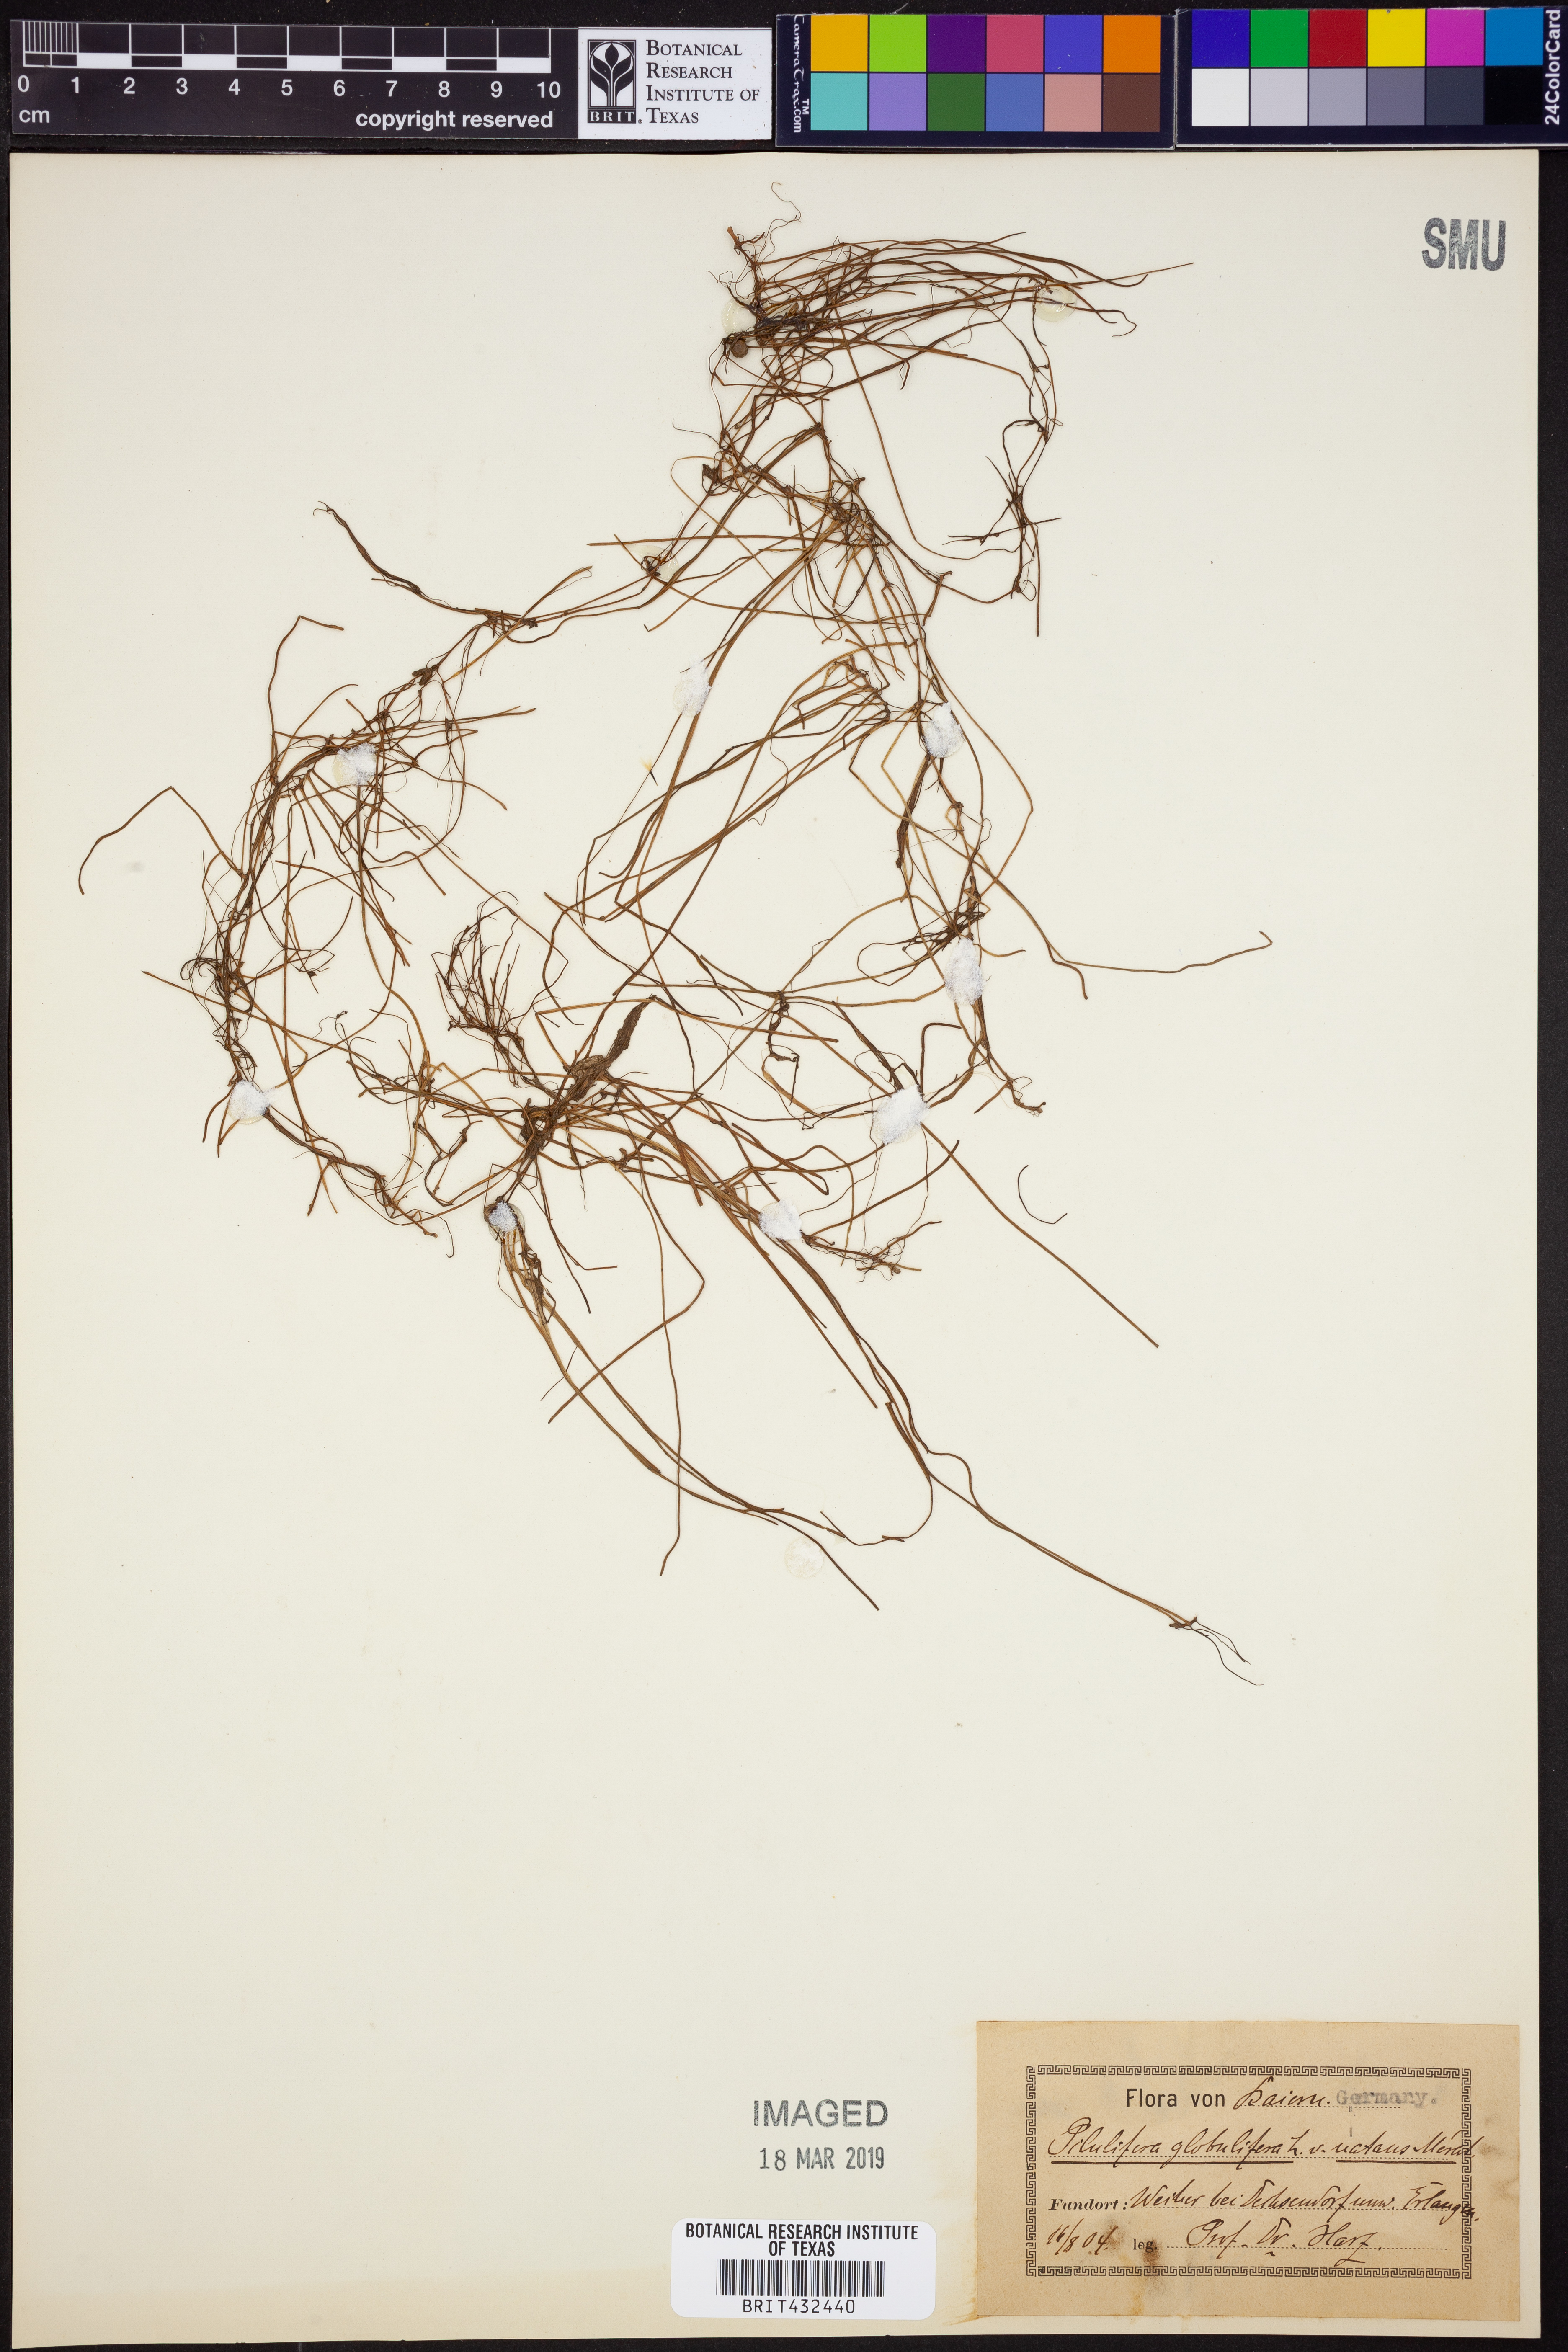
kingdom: Plantae
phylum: Tracheophyta
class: Polypodiopsida
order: Salviniales
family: Marsileaceae
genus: Pilularia
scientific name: Pilularia globulifera
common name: Pillwort
